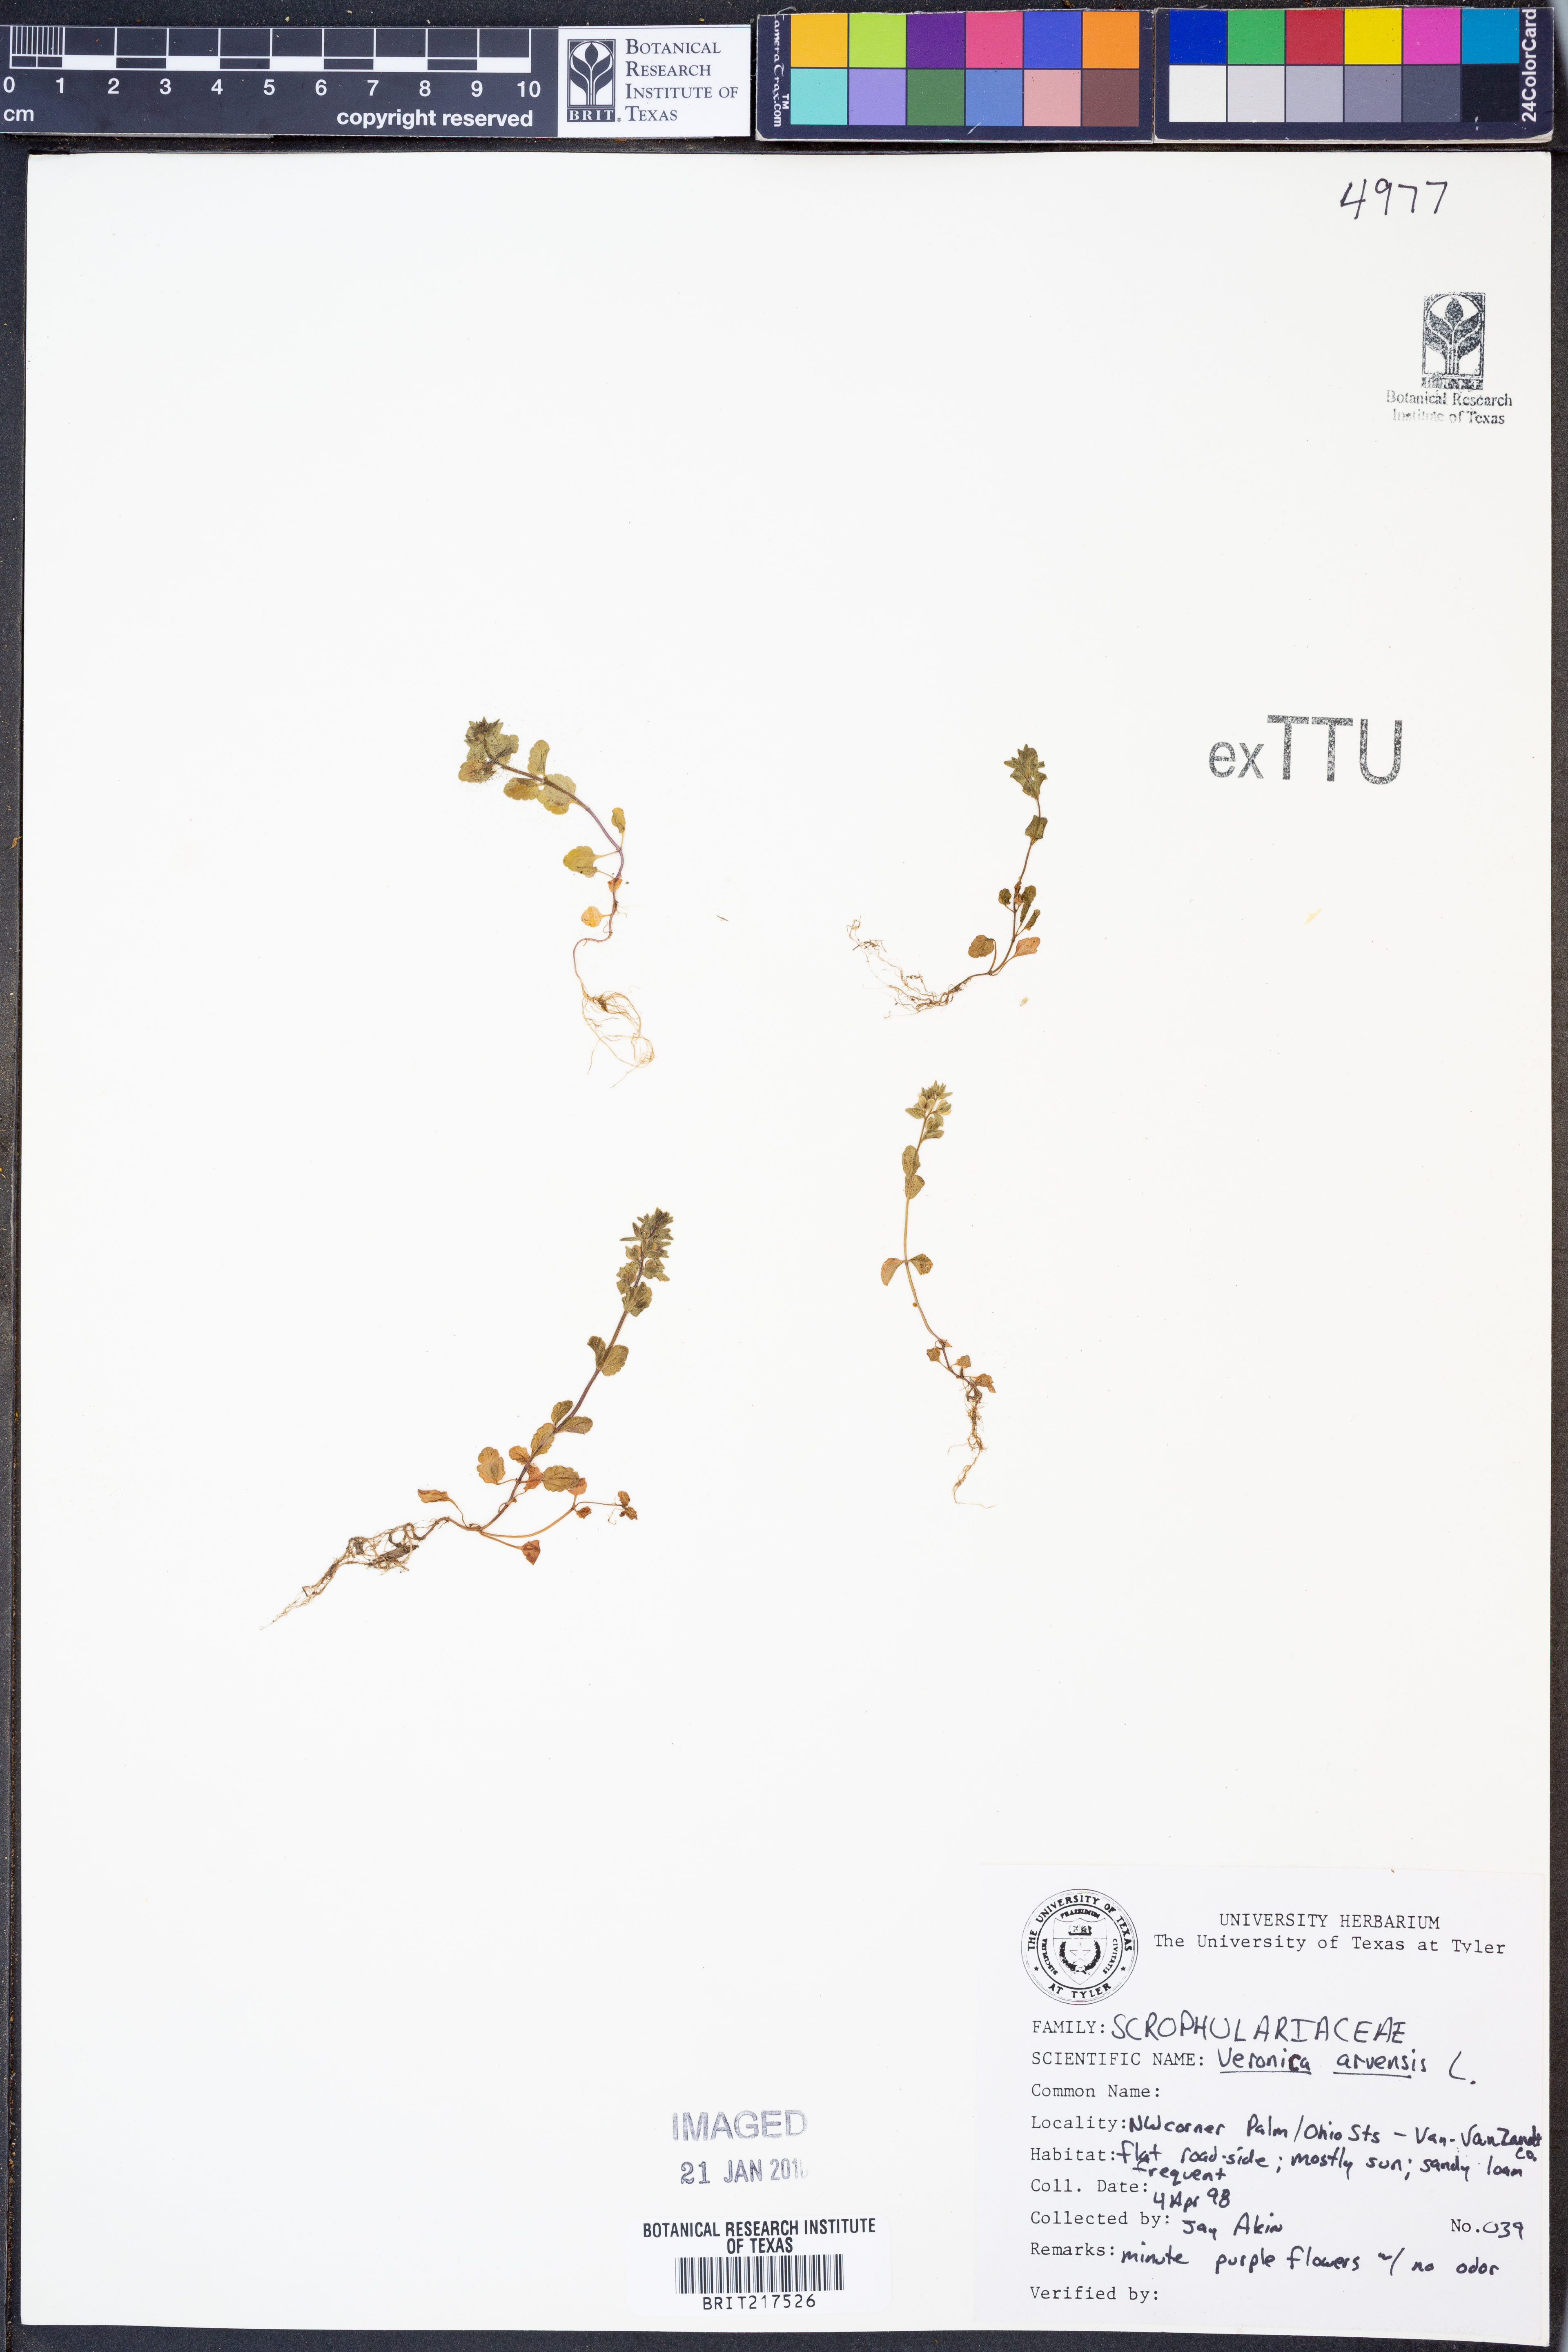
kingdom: Plantae
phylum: Tracheophyta
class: Magnoliopsida
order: Lamiales
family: Plantaginaceae
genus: Veronica
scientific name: Veronica arvensis
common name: Corn speedwell
